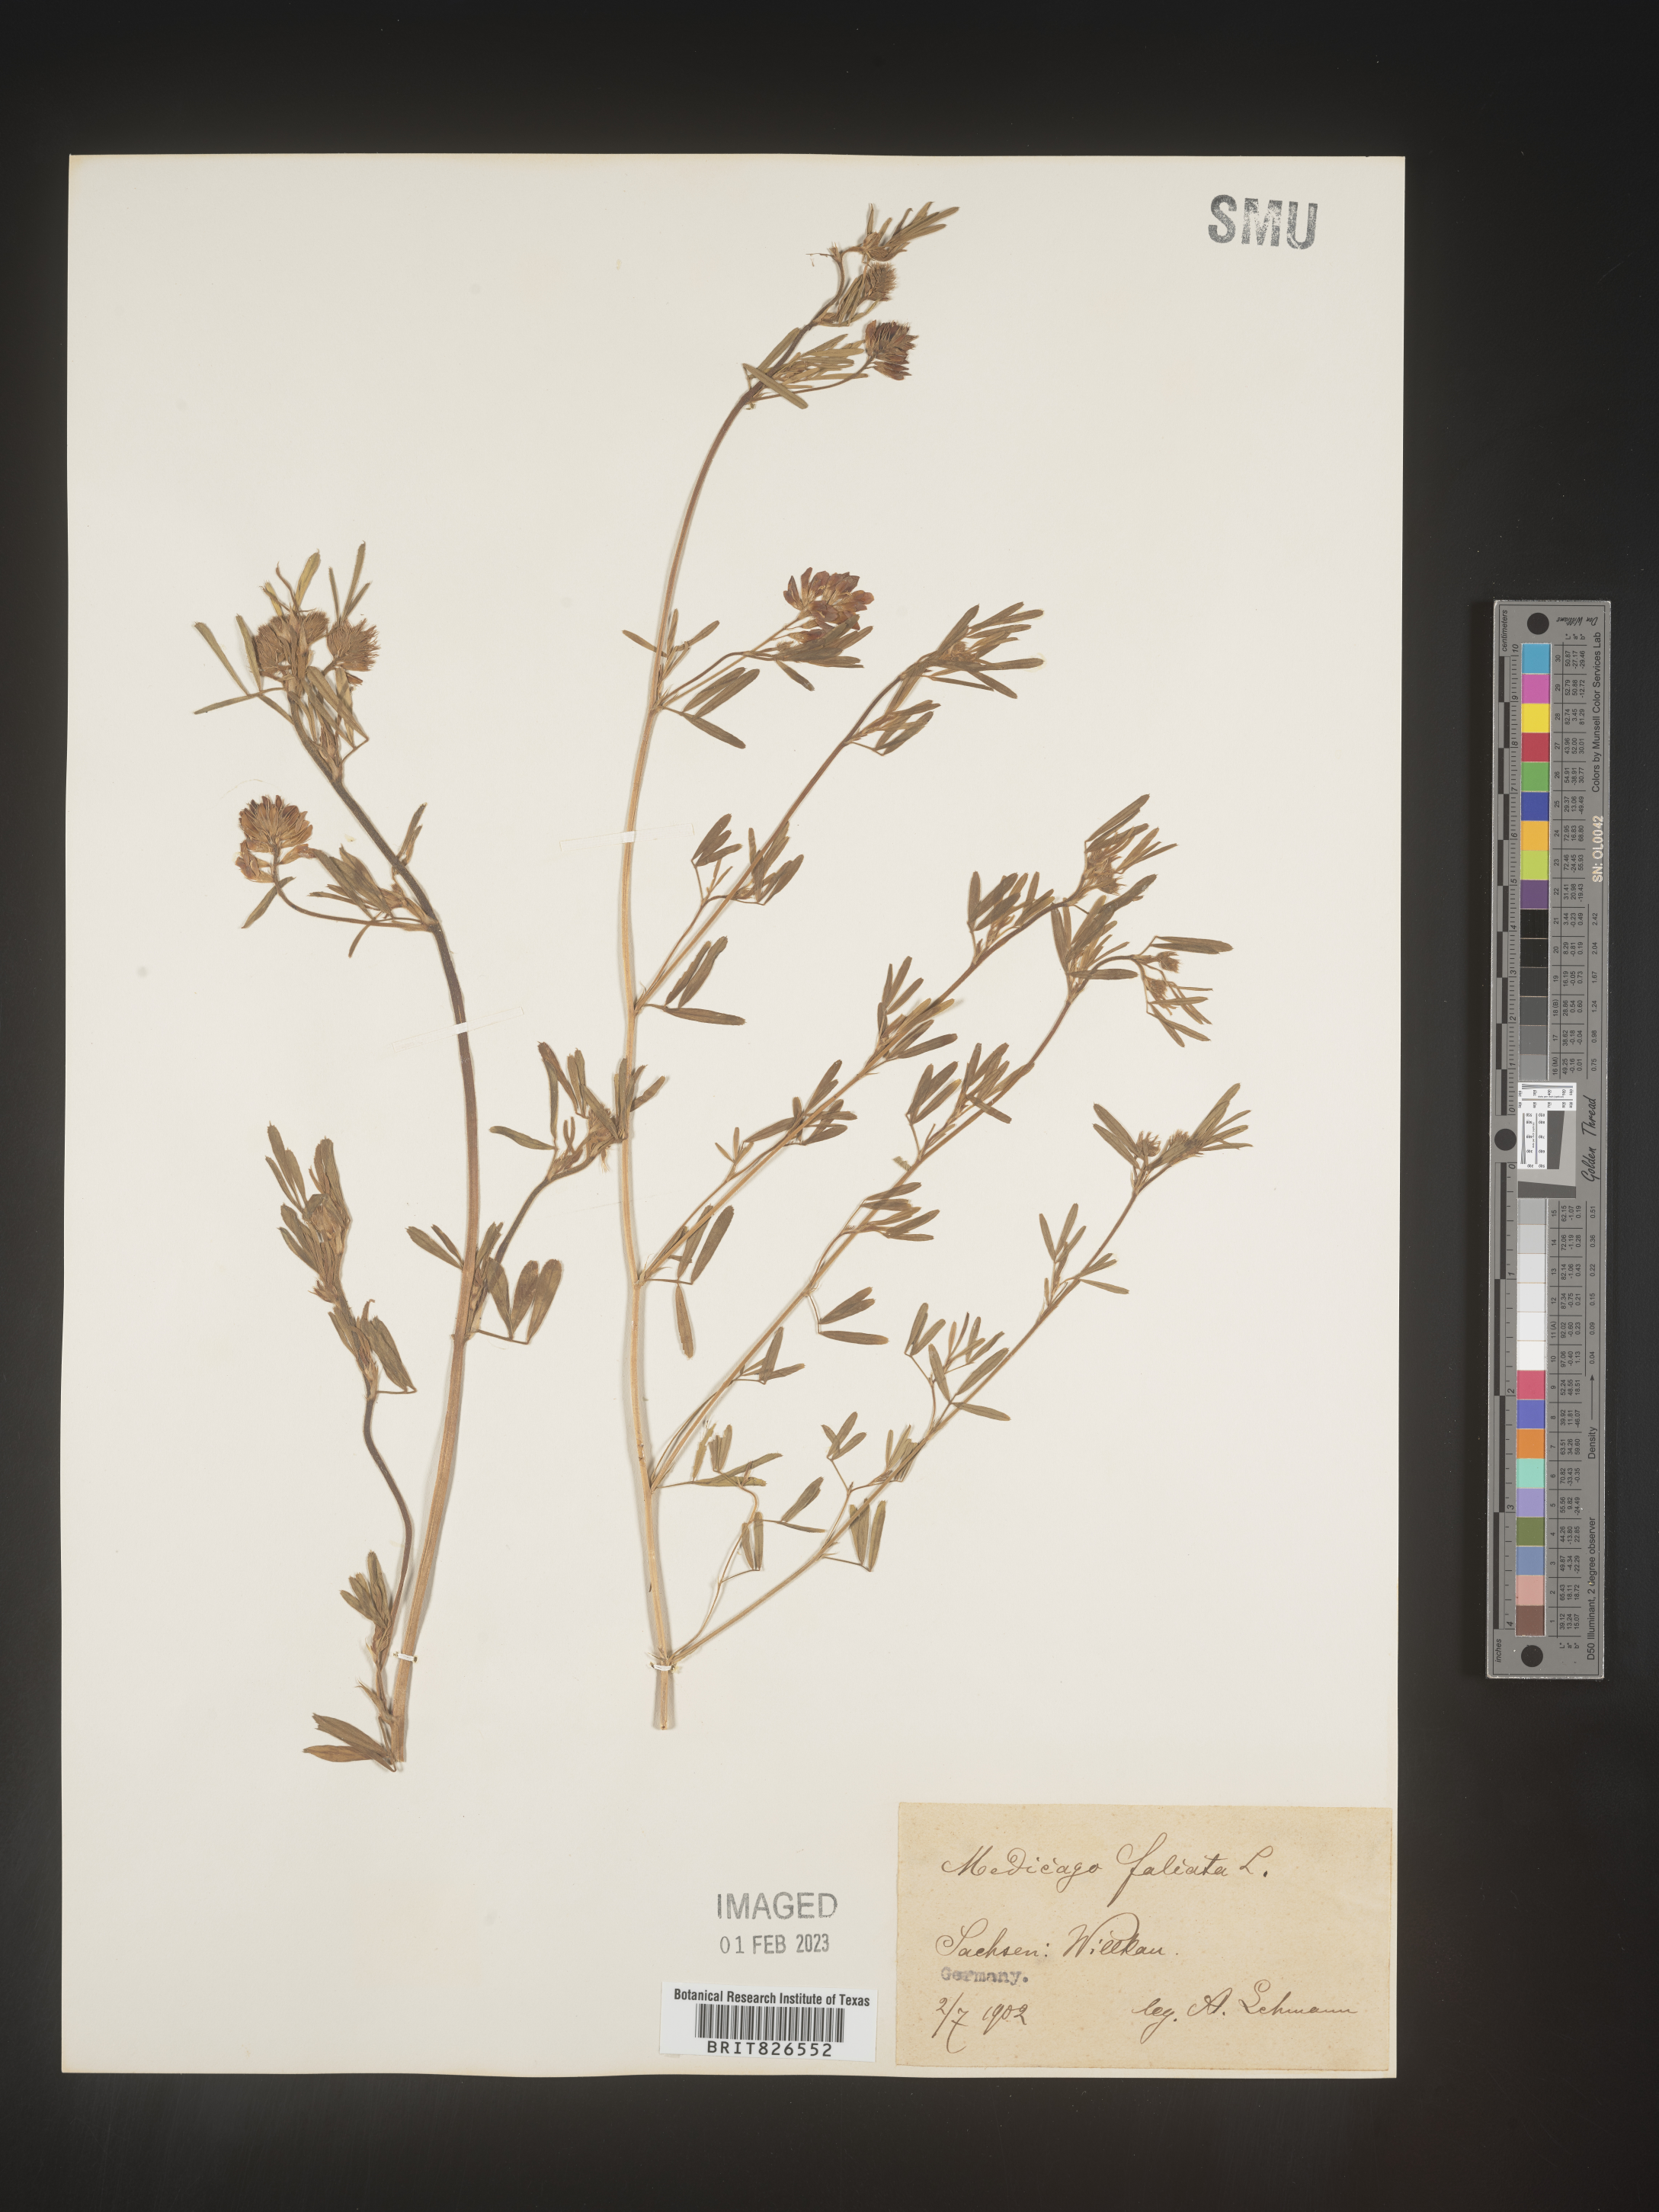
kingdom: Plantae
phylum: Tracheophyta
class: Magnoliopsida
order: Fabales
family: Fabaceae
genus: Medicago
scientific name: Medicago
